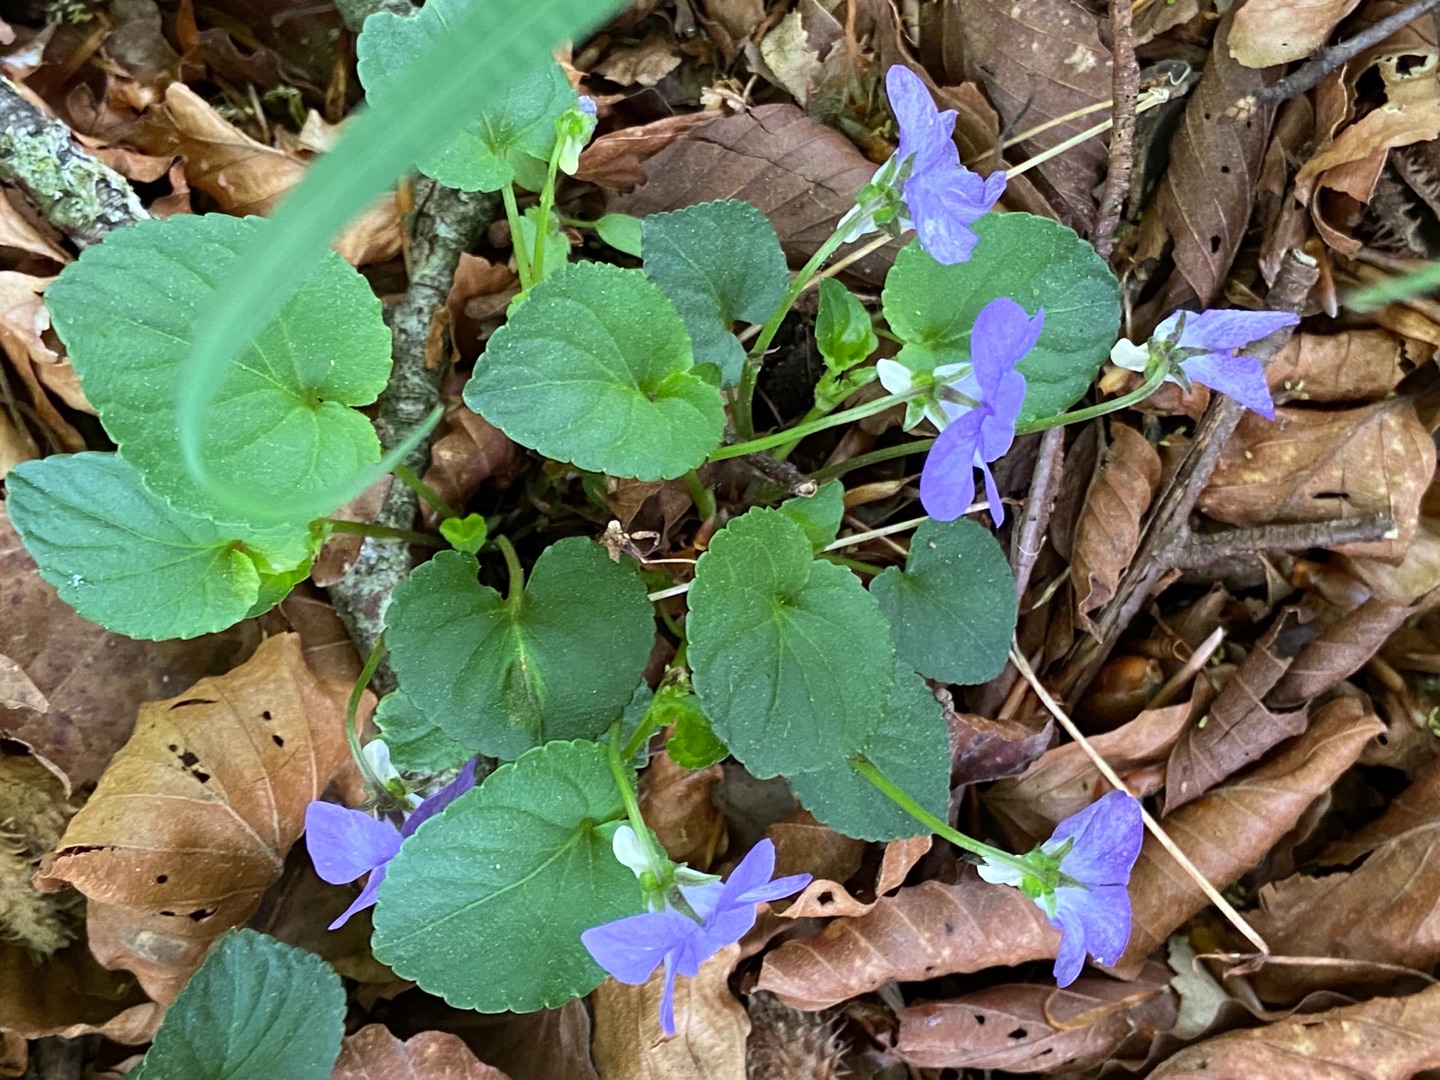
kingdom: Plantae
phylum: Tracheophyta
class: Magnoliopsida
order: Malpighiales
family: Violaceae
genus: Viola
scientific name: Viola riviniana
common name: Krat-viol
